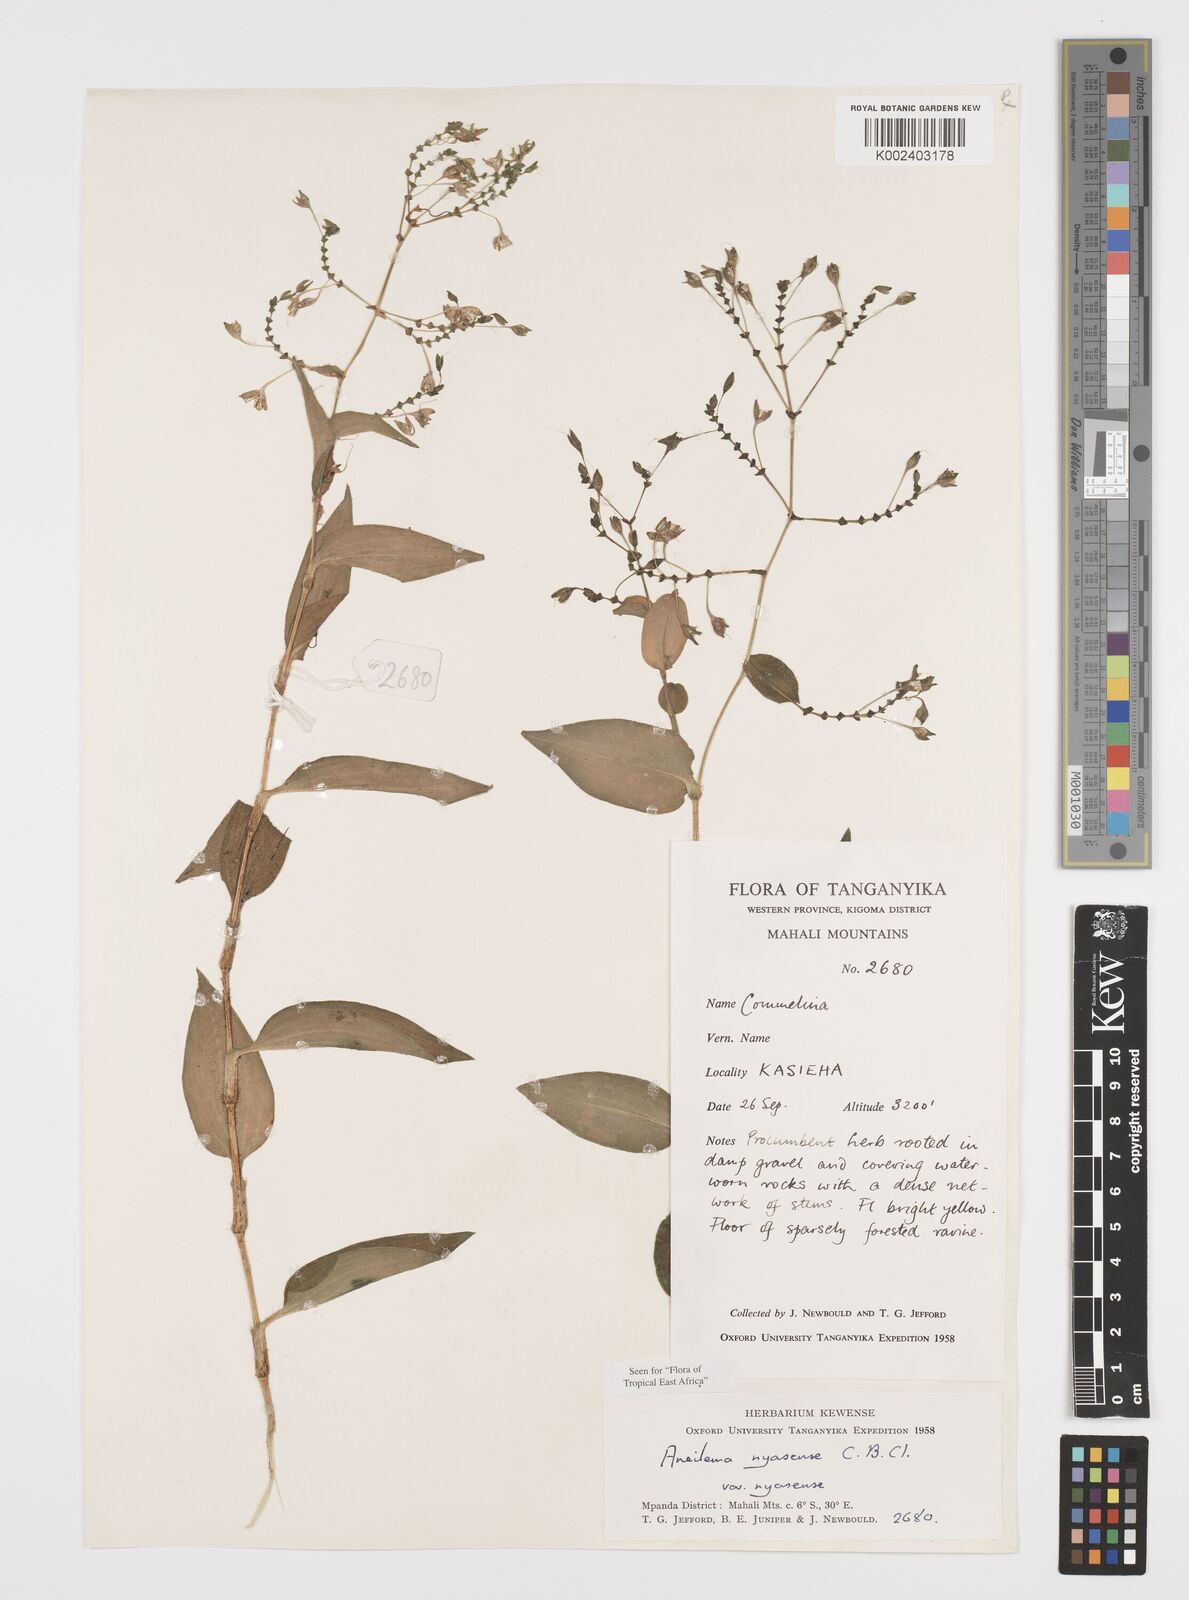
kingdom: Plantae
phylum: Tracheophyta
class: Liliopsida
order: Commelinales
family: Commelinaceae
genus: Aneilema
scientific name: Aneilema nyasense
